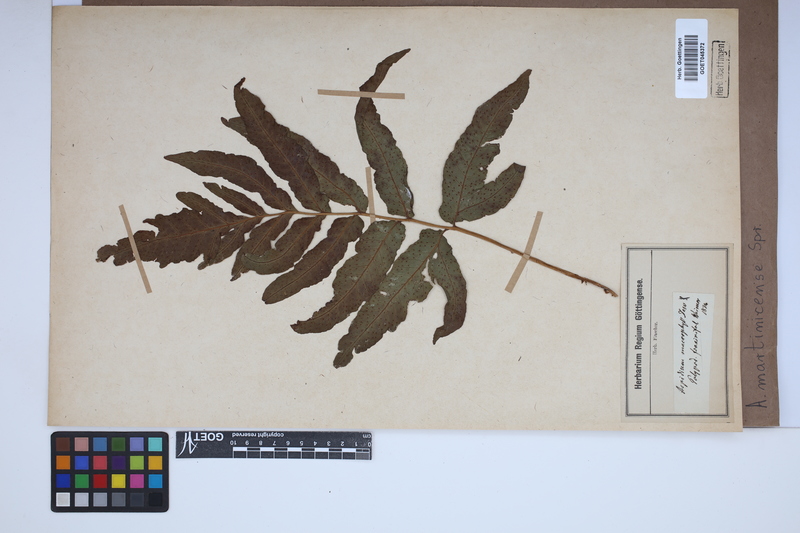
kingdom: Plantae
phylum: Tracheophyta
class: Polypodiopsida
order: Polypodiales
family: Tectariaceae
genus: Tectaria
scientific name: Tectaria incisa
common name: Incised halberd fern
